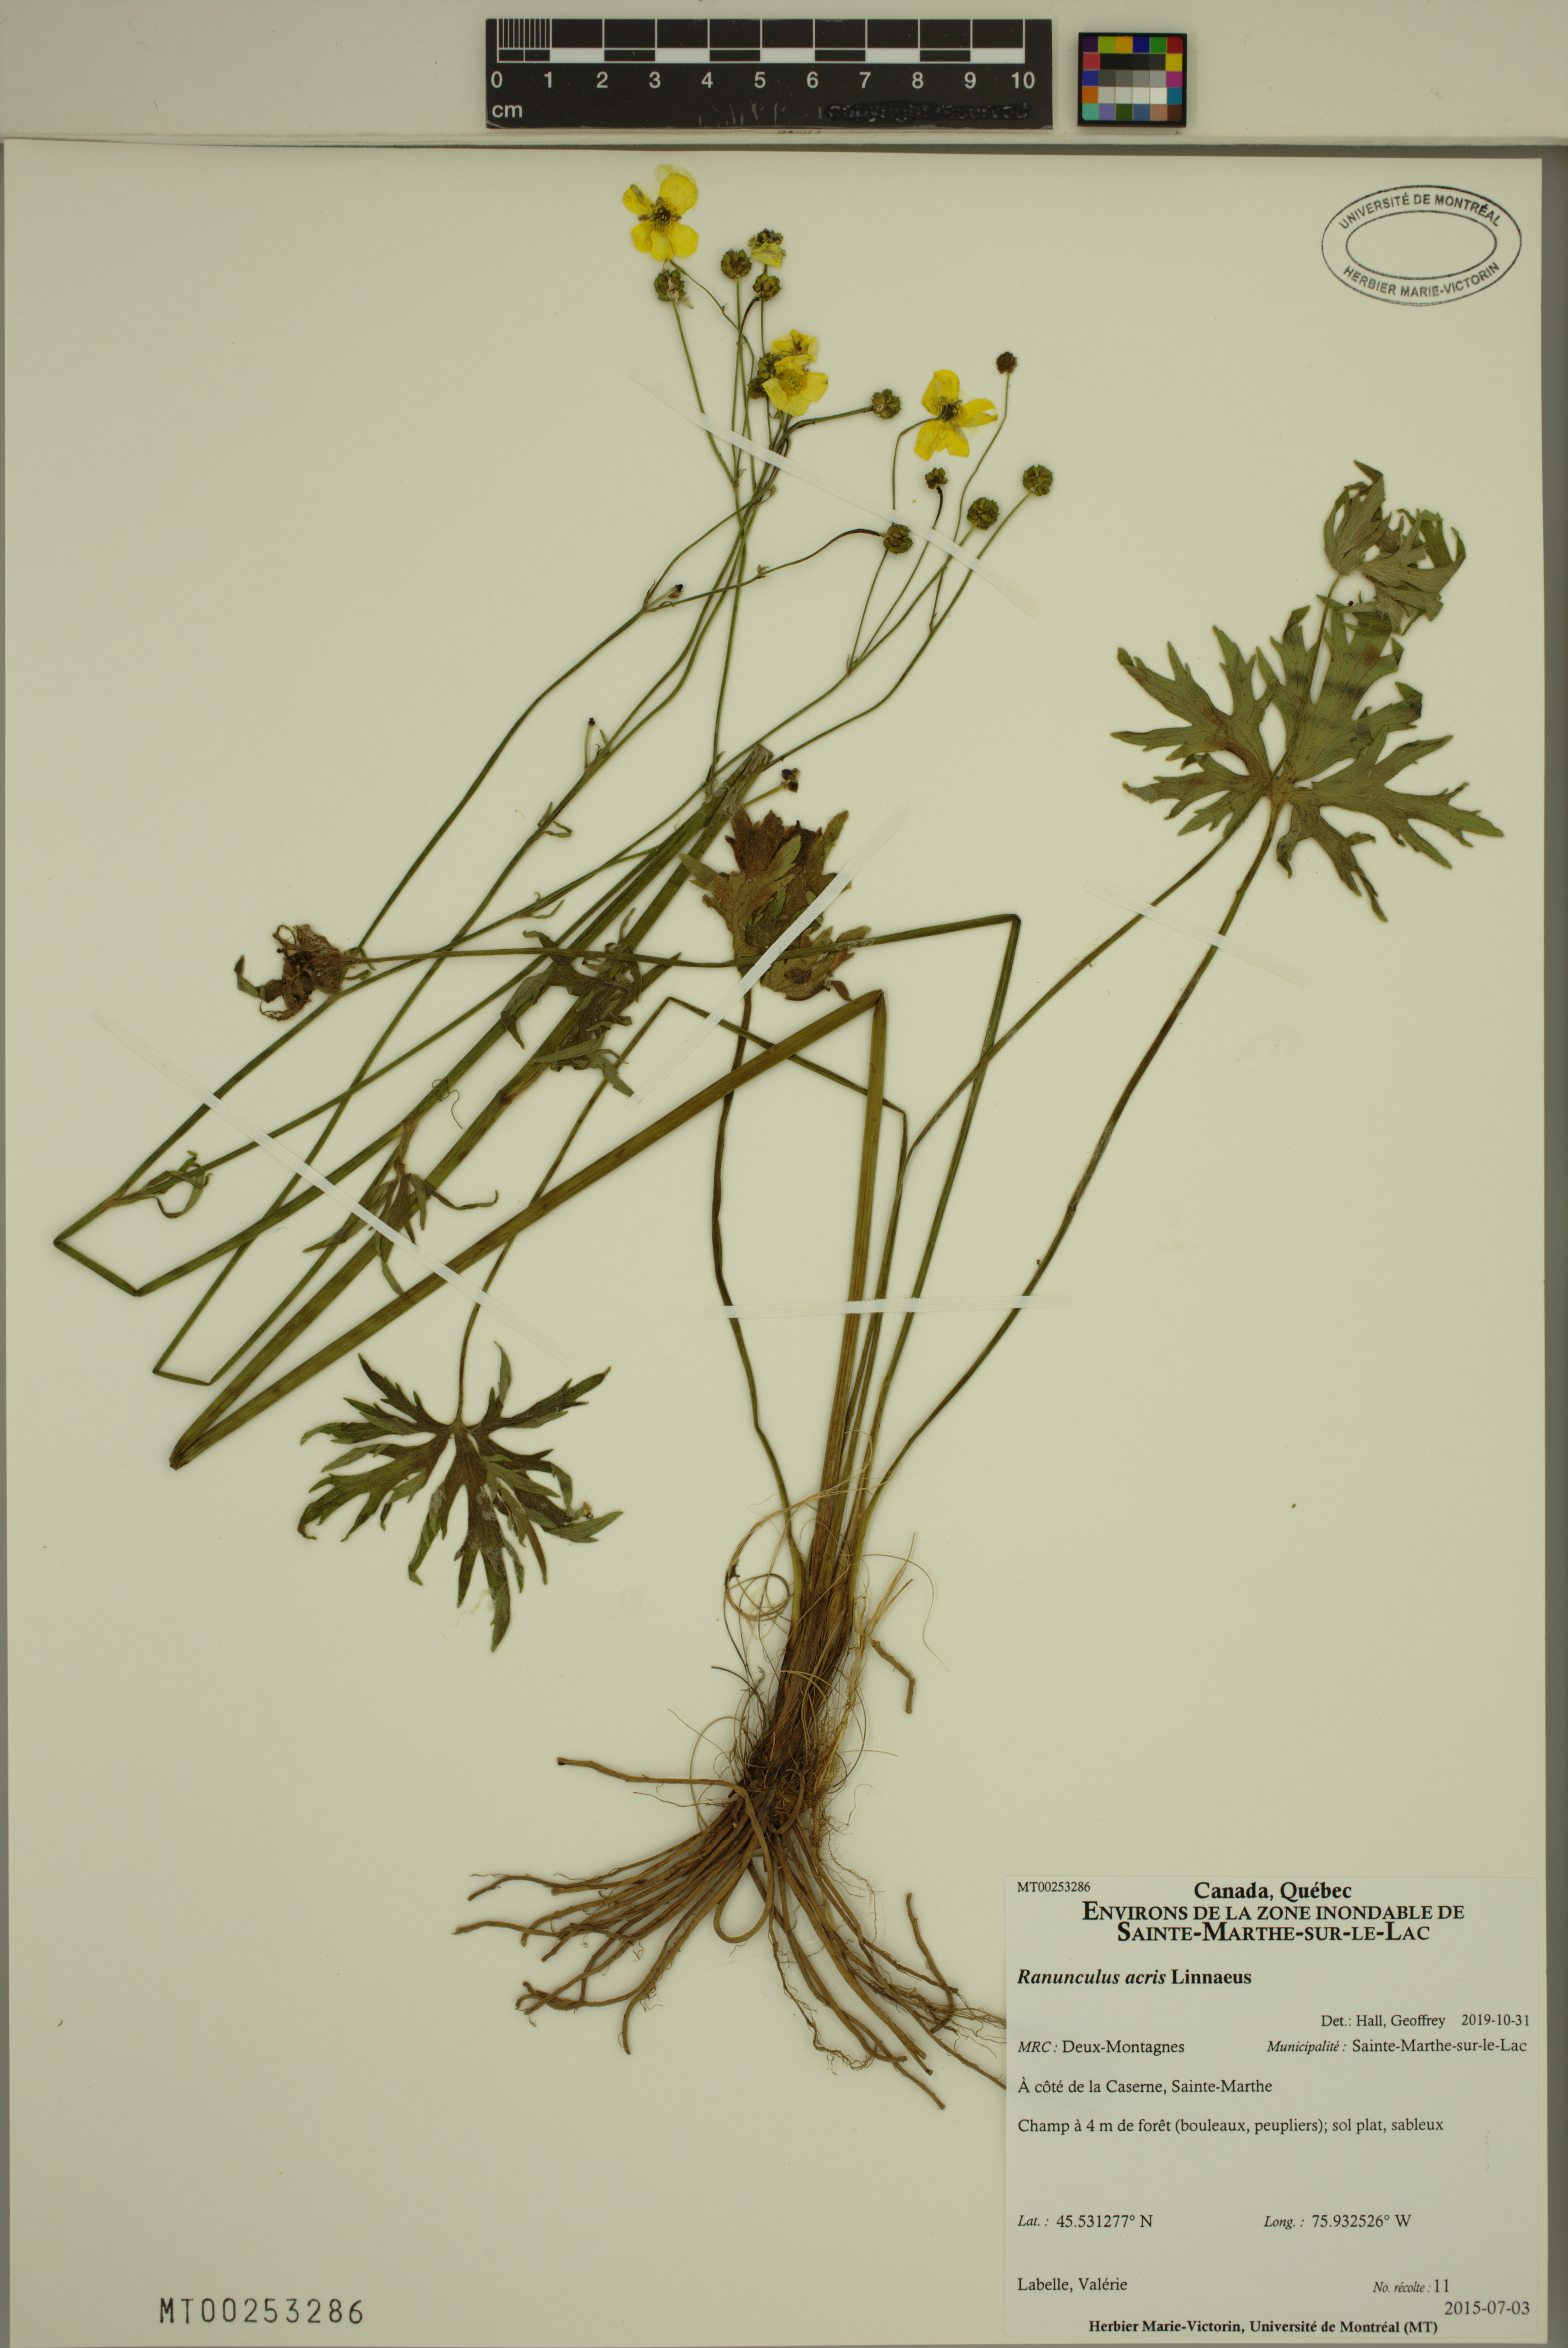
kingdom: Plantae
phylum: Tracheophyta
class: Magnoliopsida
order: Ranunculales
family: Ranunculaceae
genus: Ranunculus
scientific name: Ranunculus acris
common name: Meadow buttercup
